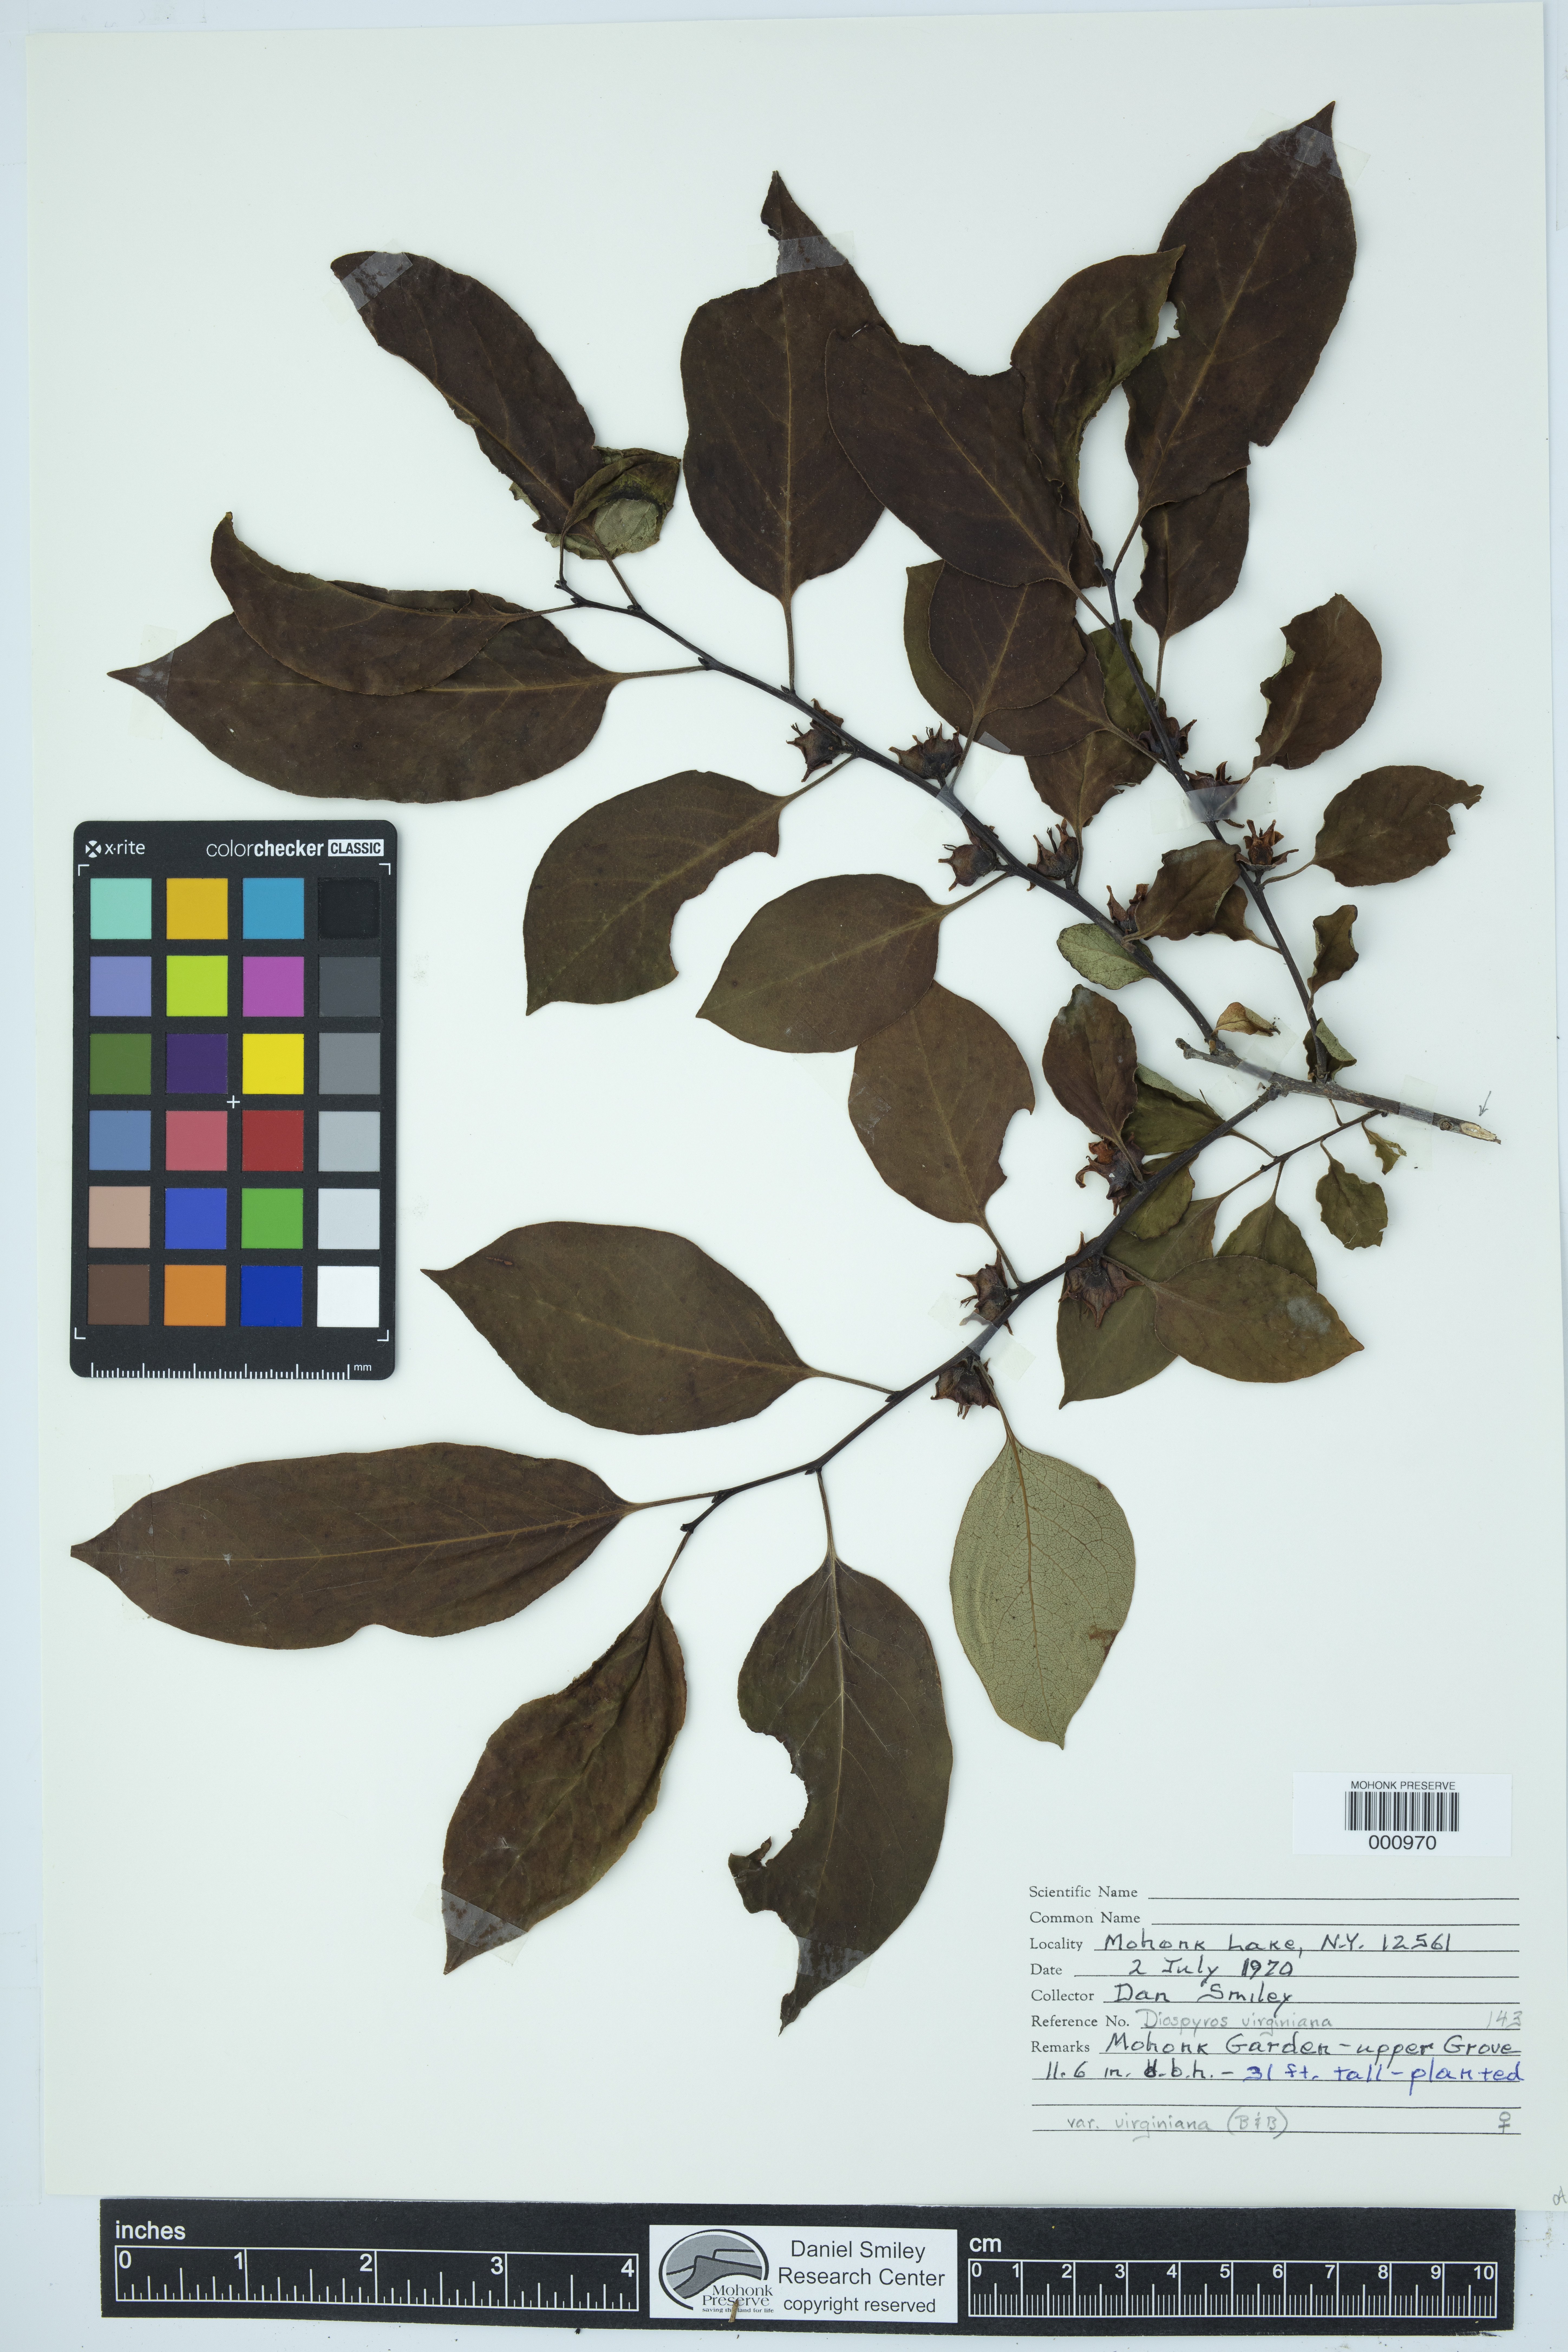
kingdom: Plantae
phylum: Tracheophyta
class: Magnoliopsida
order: Ericales
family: Ebenaceae
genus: Diospyros
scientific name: Diospyros virginiana
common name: Persimmon
